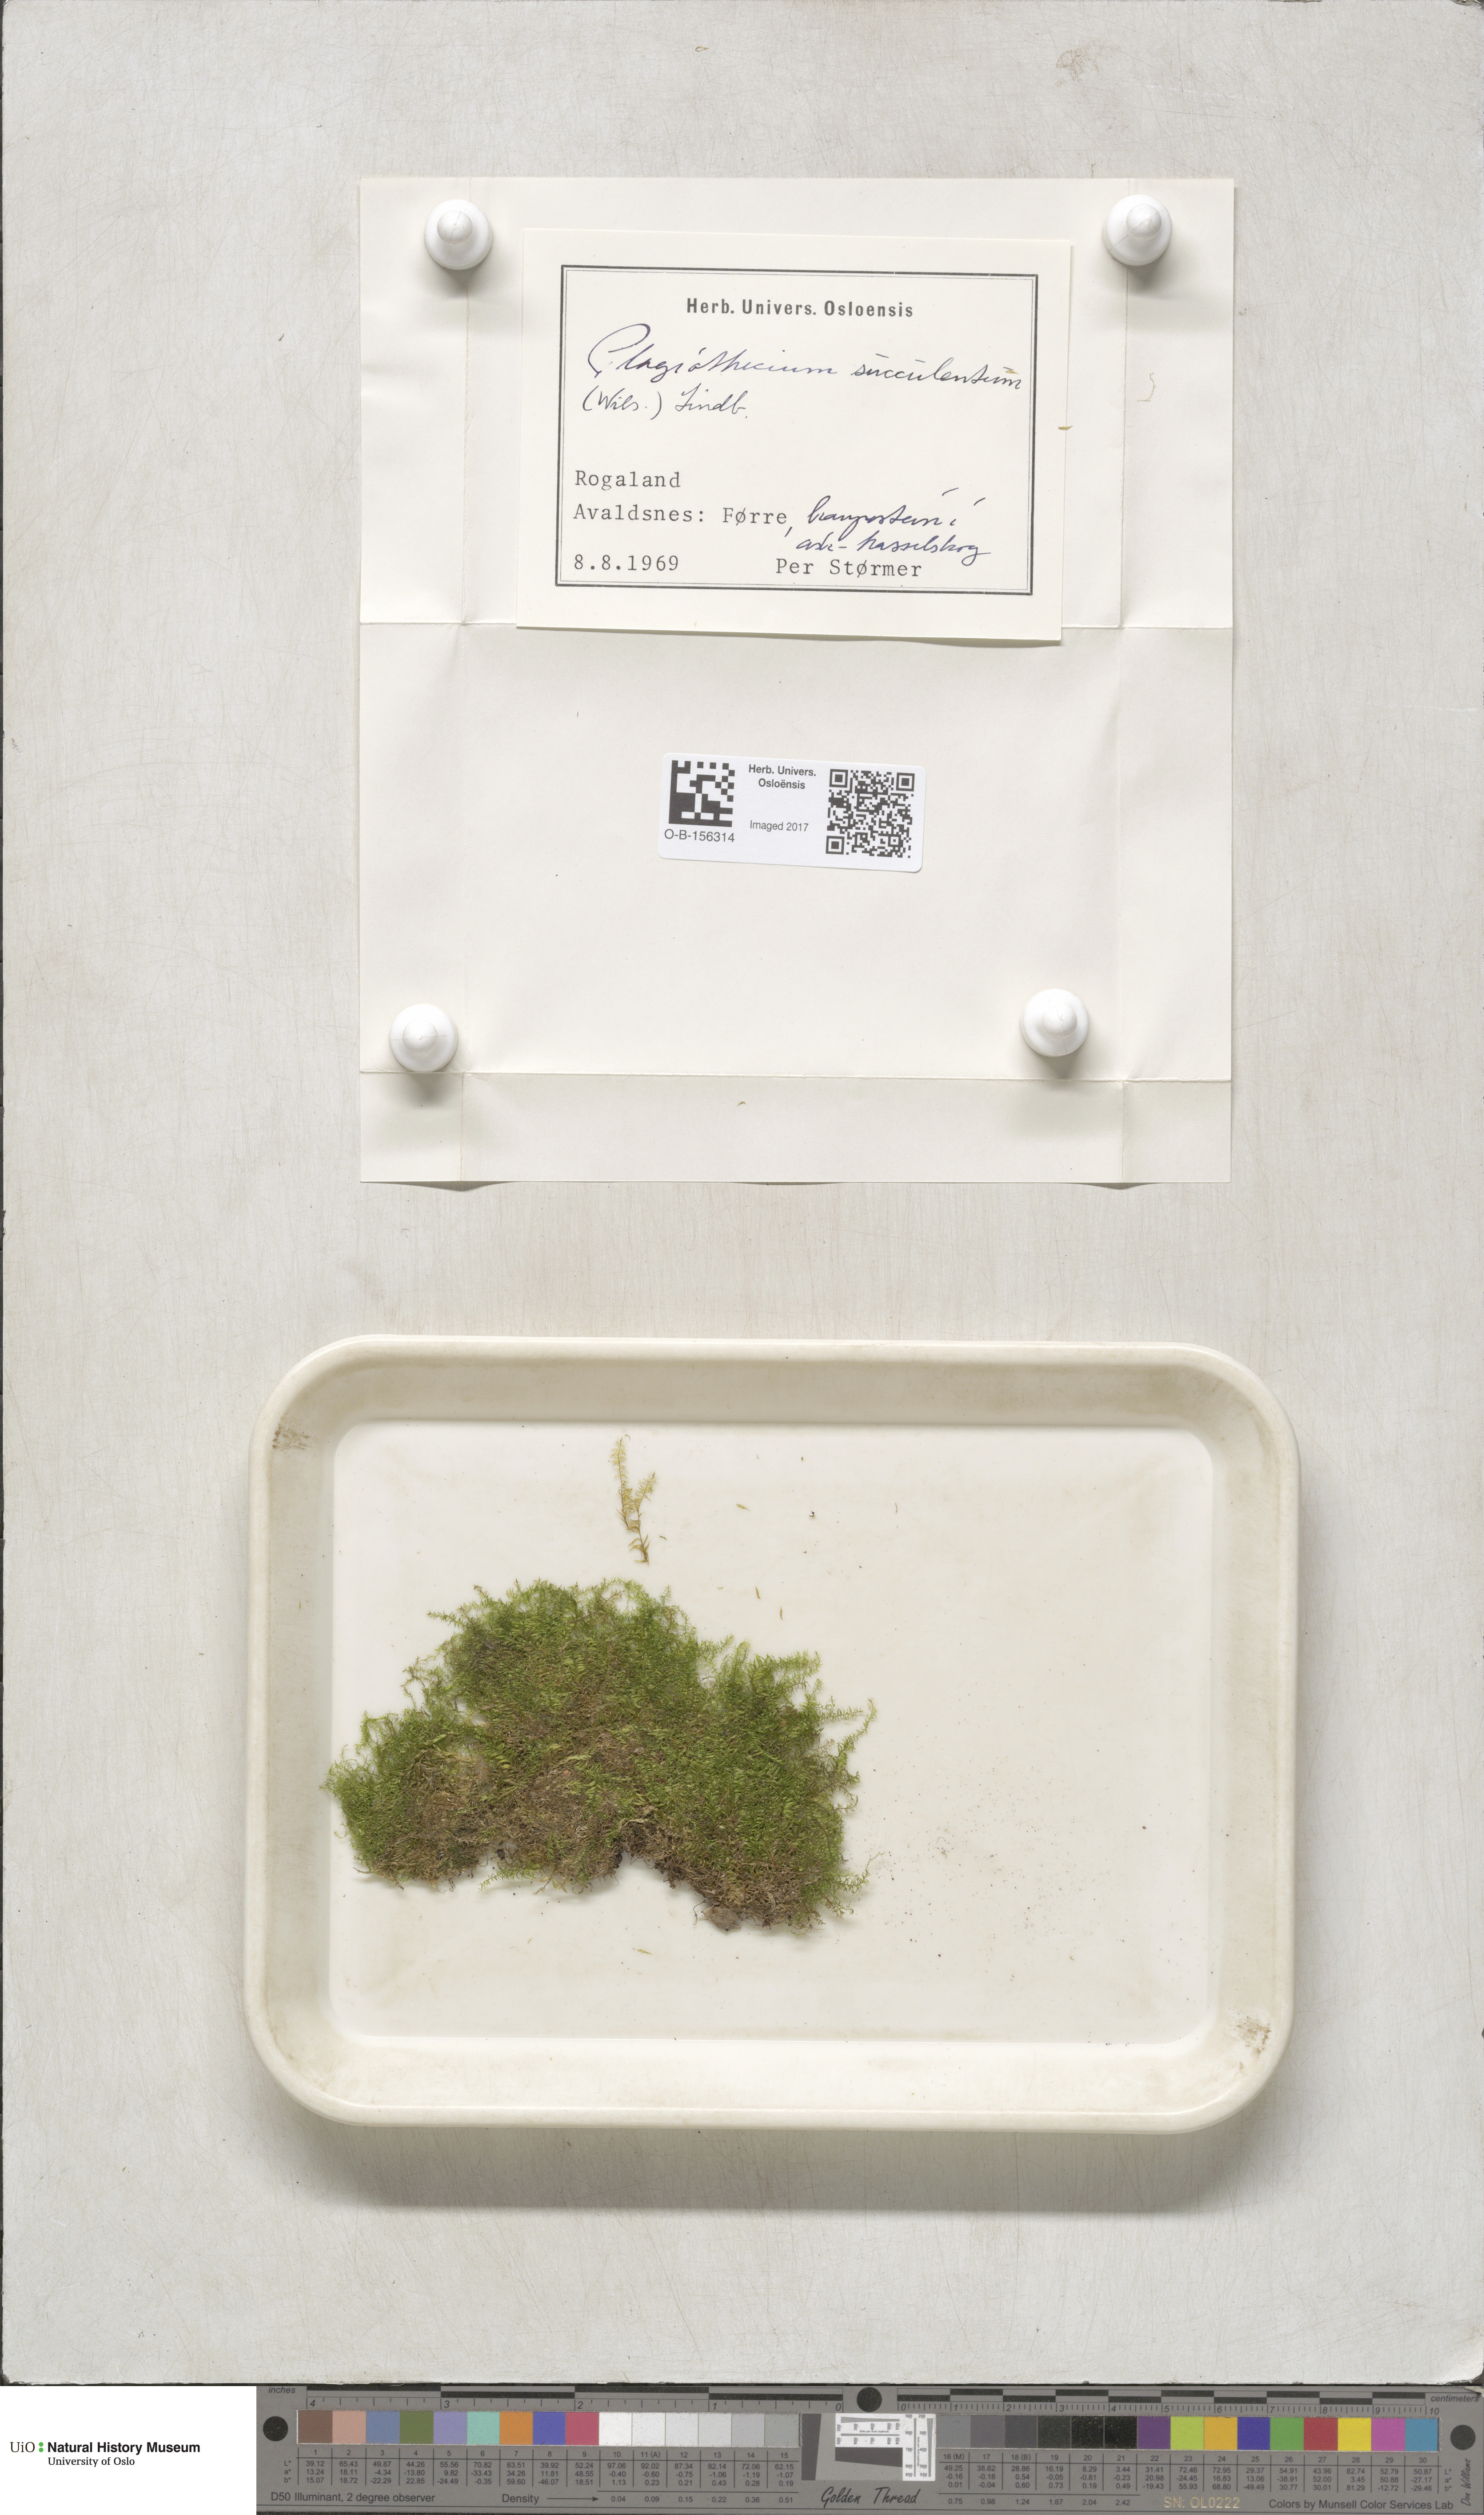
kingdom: Plantae
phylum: Bryophyta
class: Bryopsida
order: Hypnales
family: Plagiotheciaceae
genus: Plagiothecium
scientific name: Plagiothecium nemorale
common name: Woodsy silk-moss
